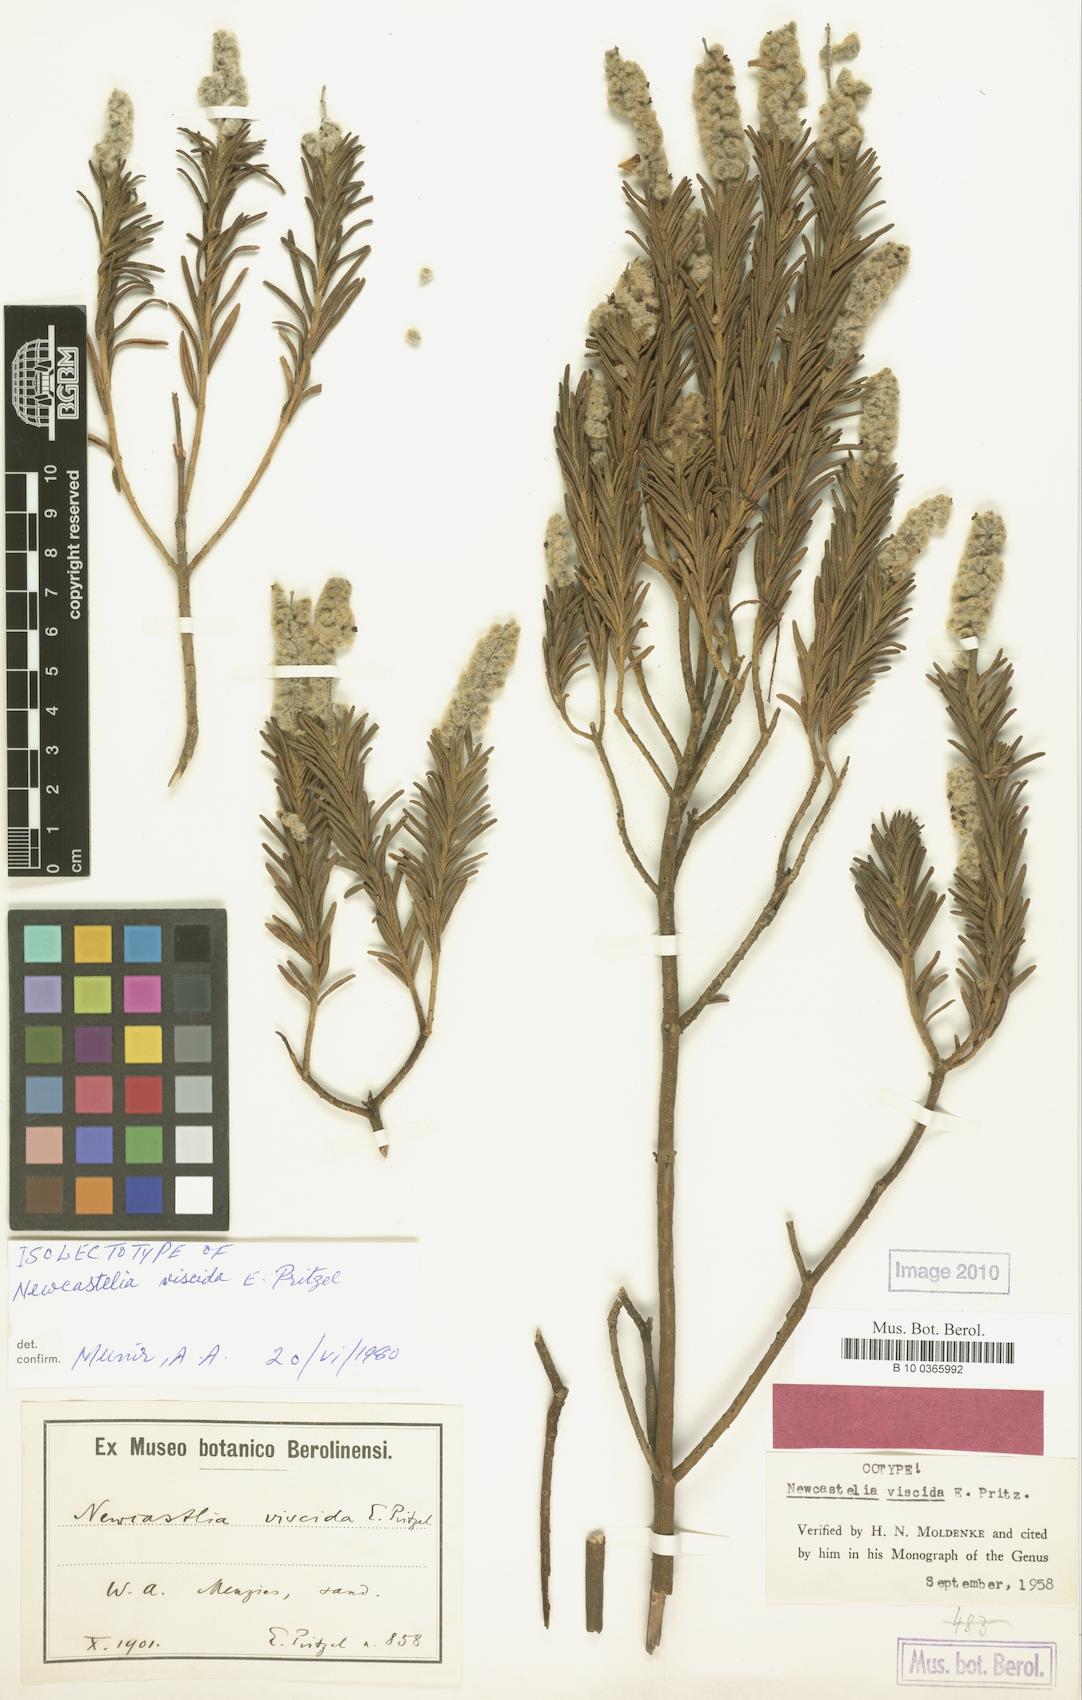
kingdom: Plantae
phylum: Tracheophyta
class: Magnoliopsida
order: Lamiales
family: Lamiaceae
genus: Apatelantha
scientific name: Apatelantha viscida
